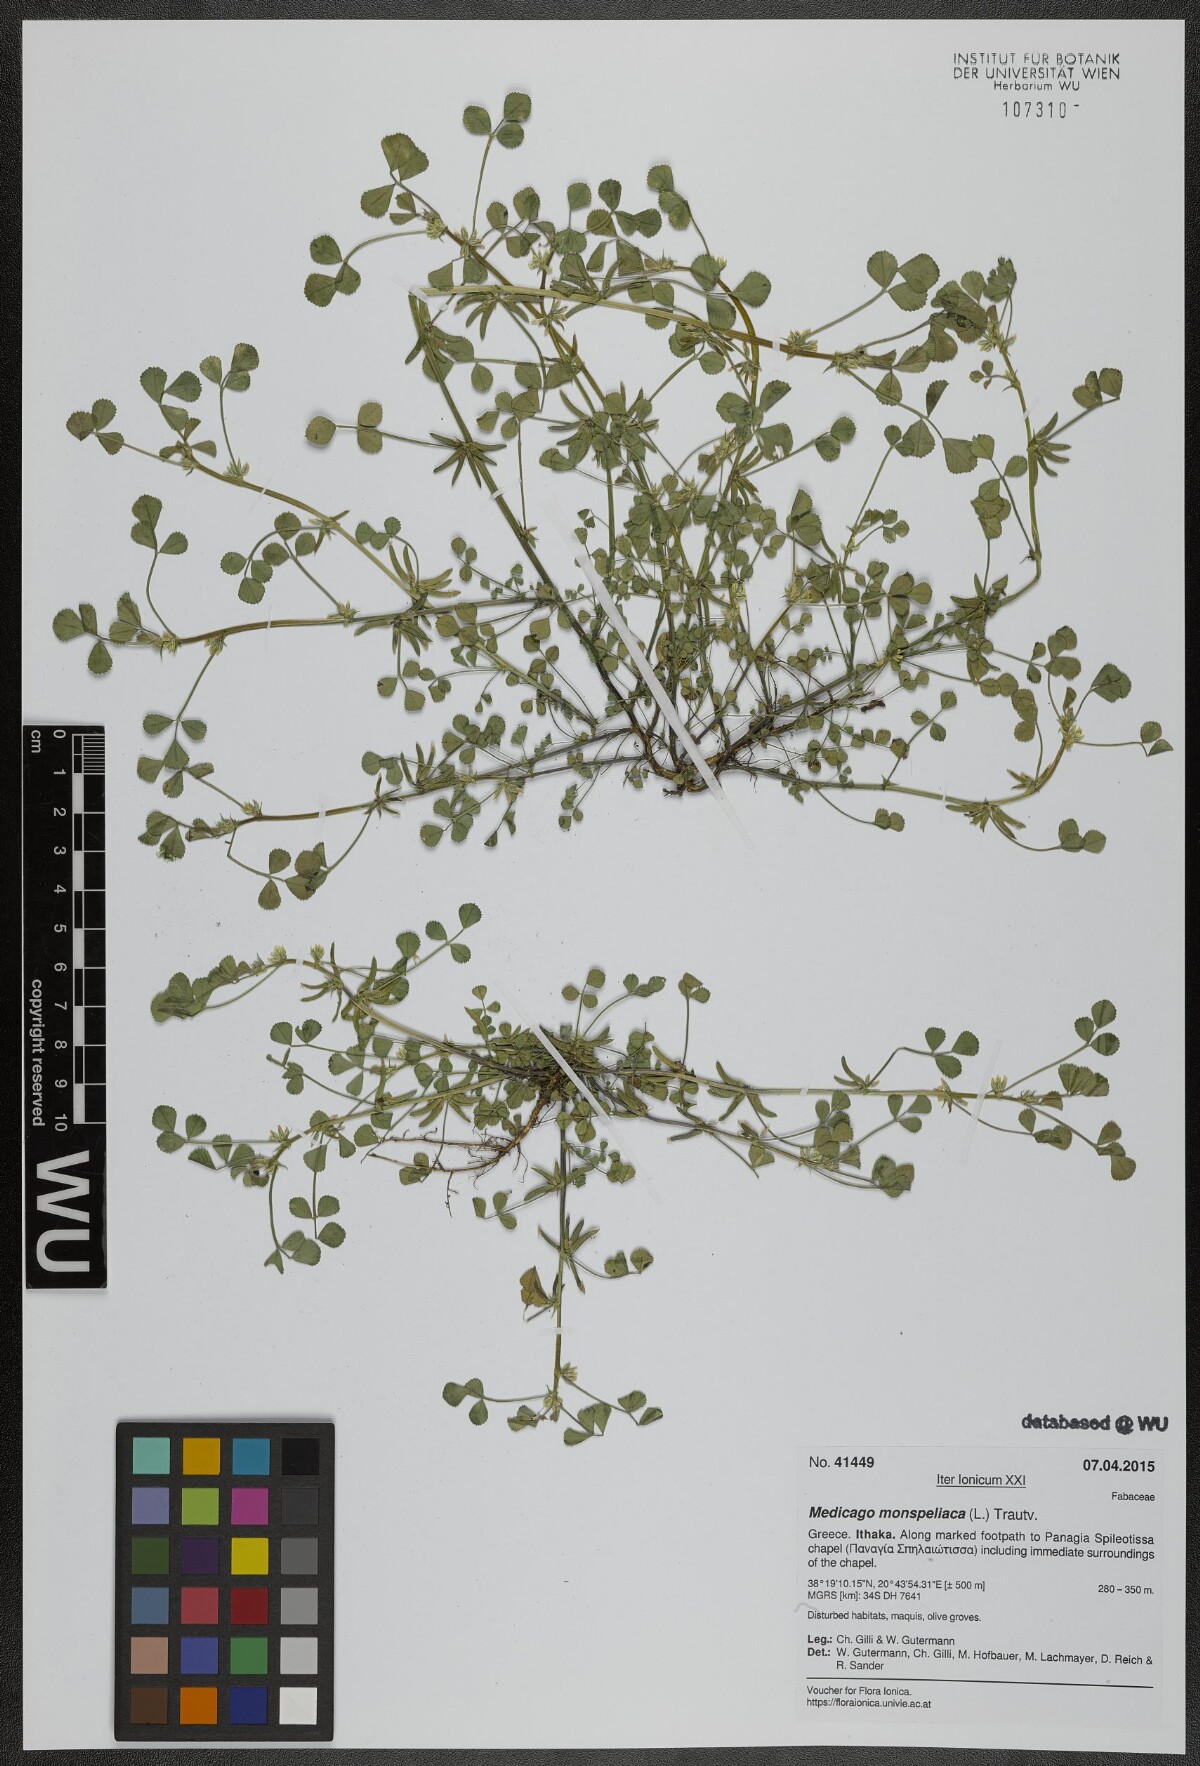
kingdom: Plantae
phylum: Tracheophyta
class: Magnoliopsida
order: Fabales
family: Fabaceae
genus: Medicago
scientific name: Medicago monspeliaca
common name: Hairy medick
